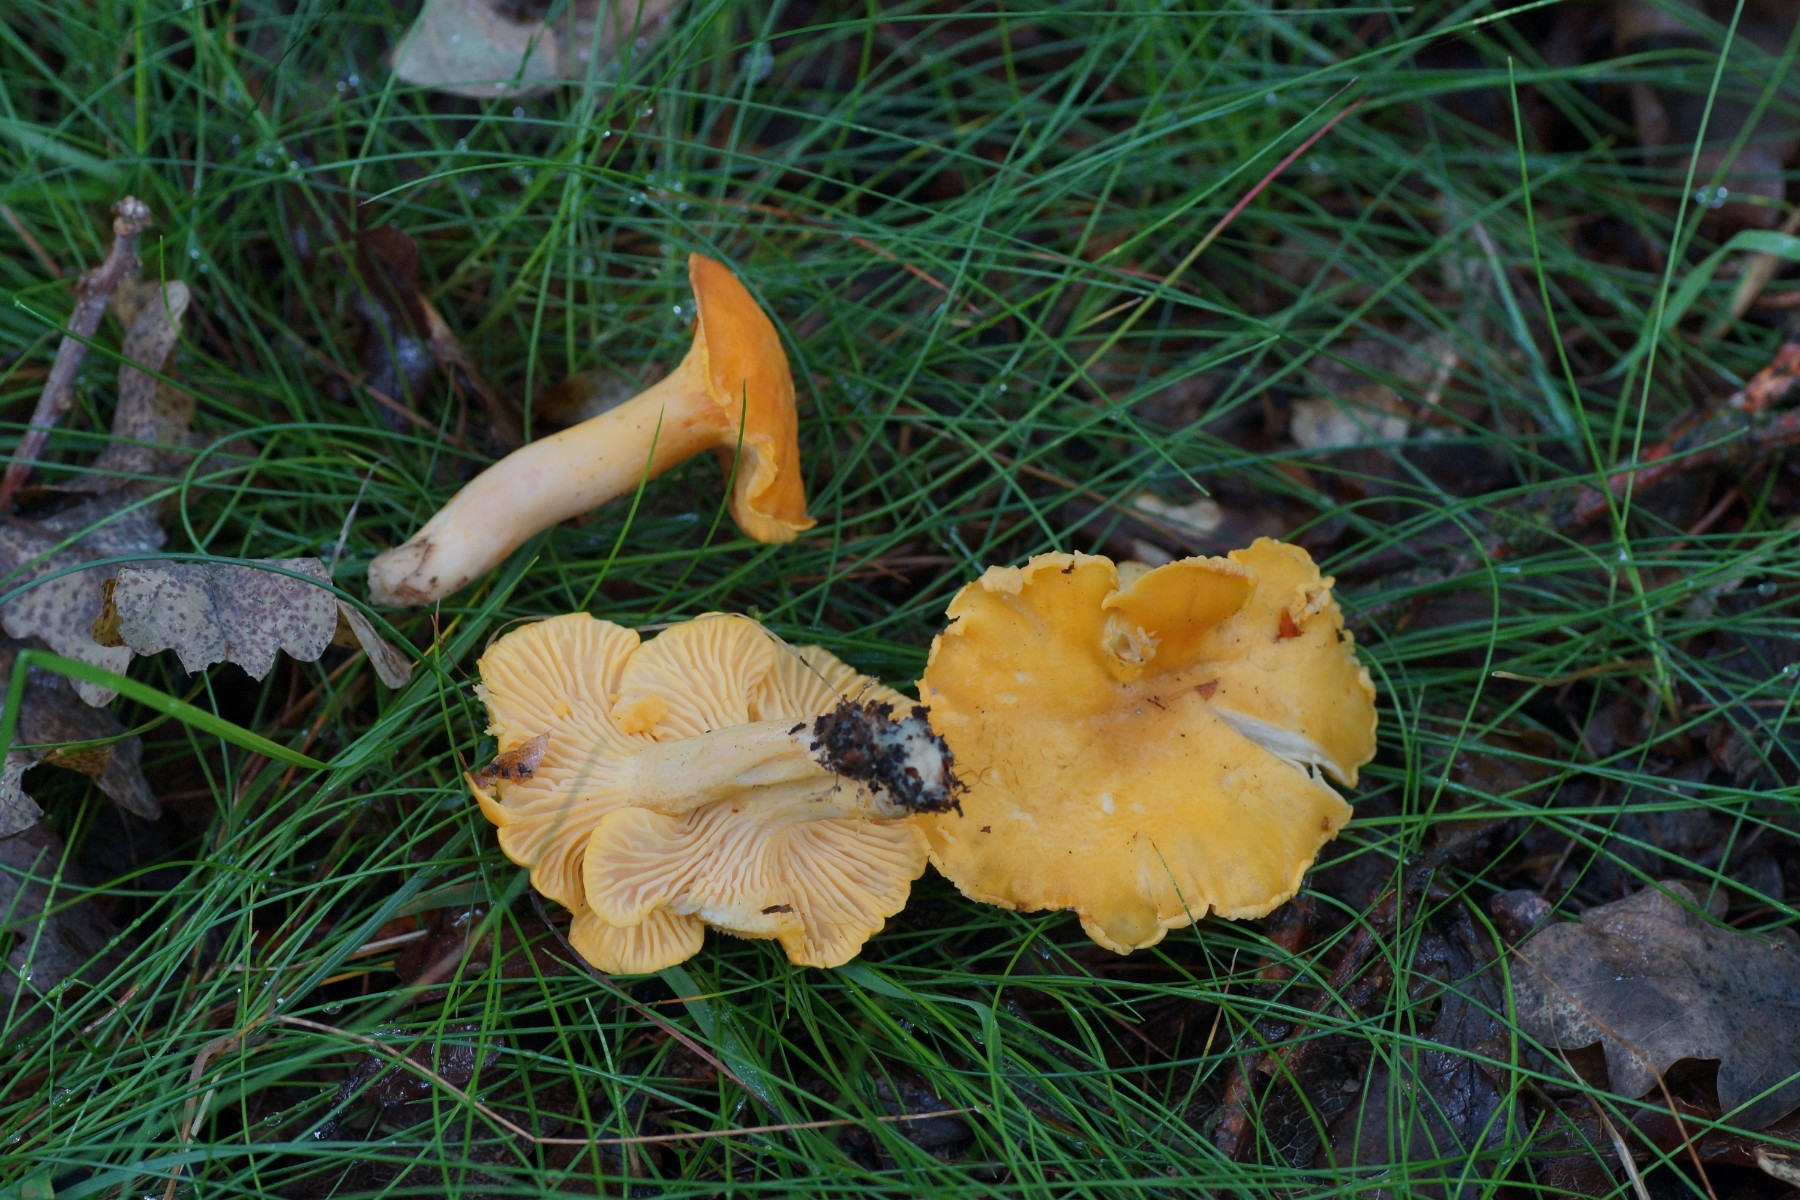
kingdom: Fungi
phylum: Basidiomycota
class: Agaricomycetes
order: Cantharellales
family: Hydnaceae
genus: Cantharellus
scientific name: Cantharellus cibarius
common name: almindelig kantarel
